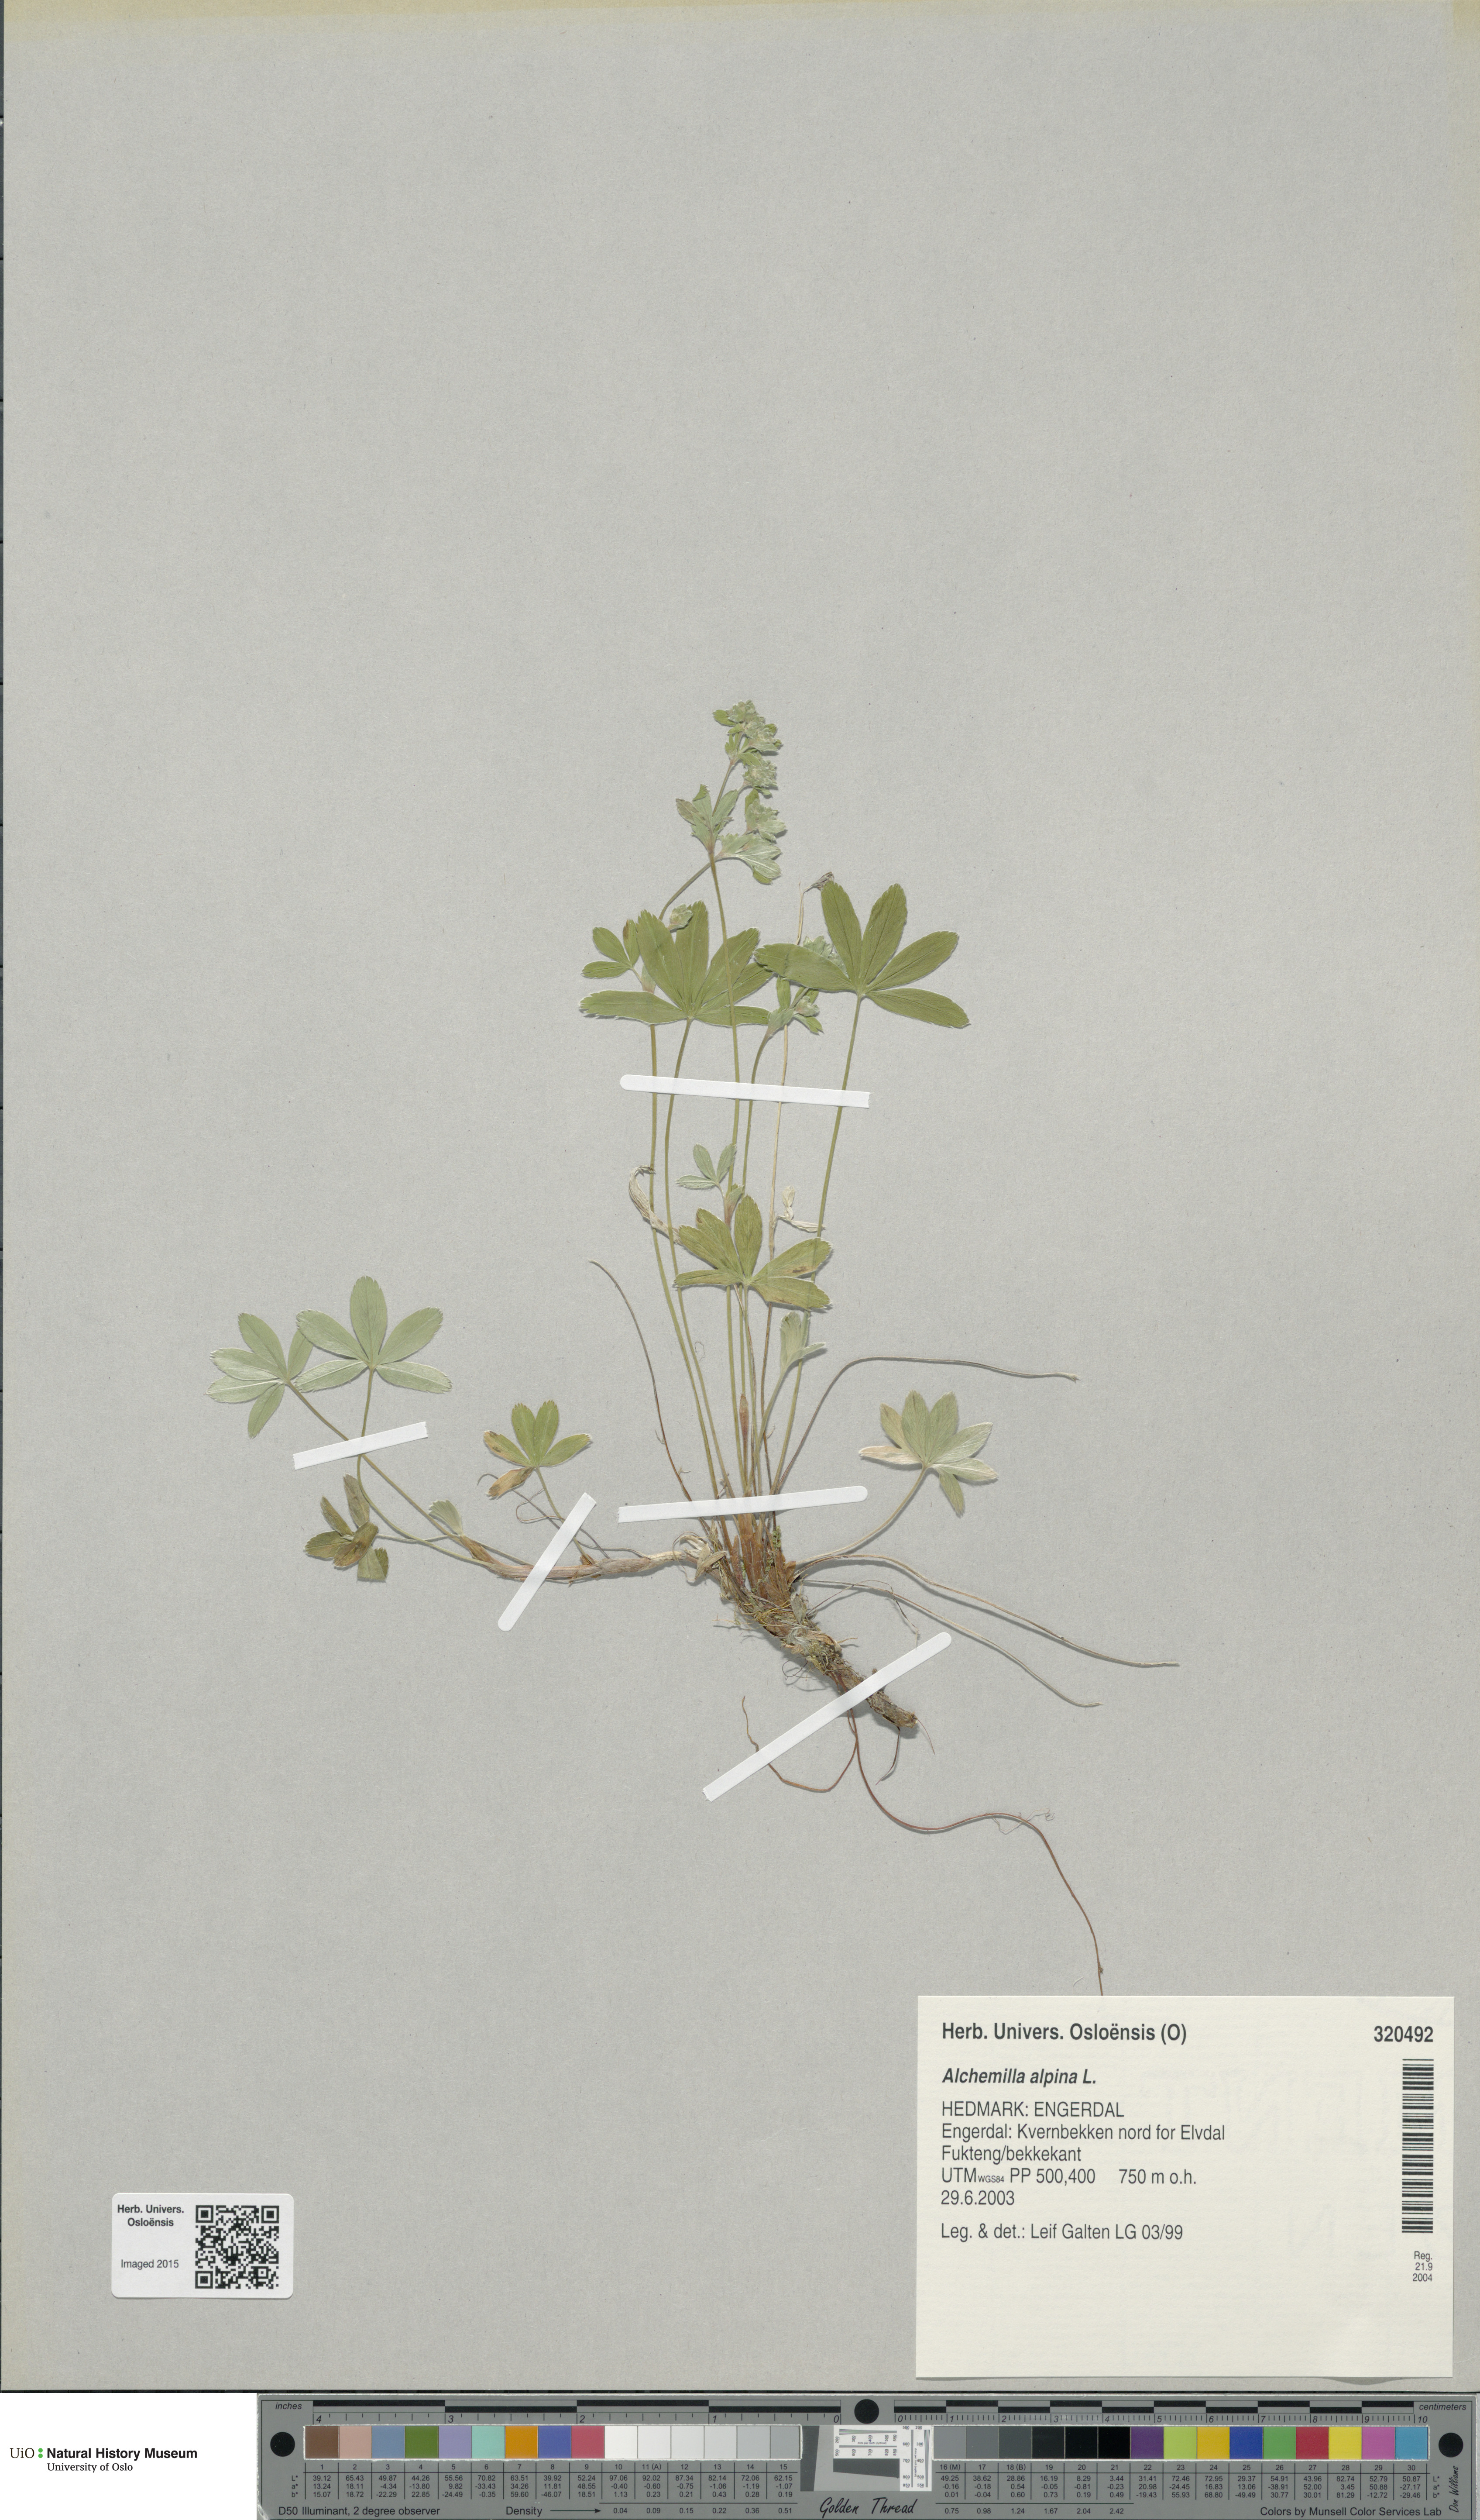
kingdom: Plantae
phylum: Tracheophyta
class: Magnoliopsida
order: Rosales
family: Rosaceae
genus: Alchemilla
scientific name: Alchemilla alpina
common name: Alpine lady's-mantle
